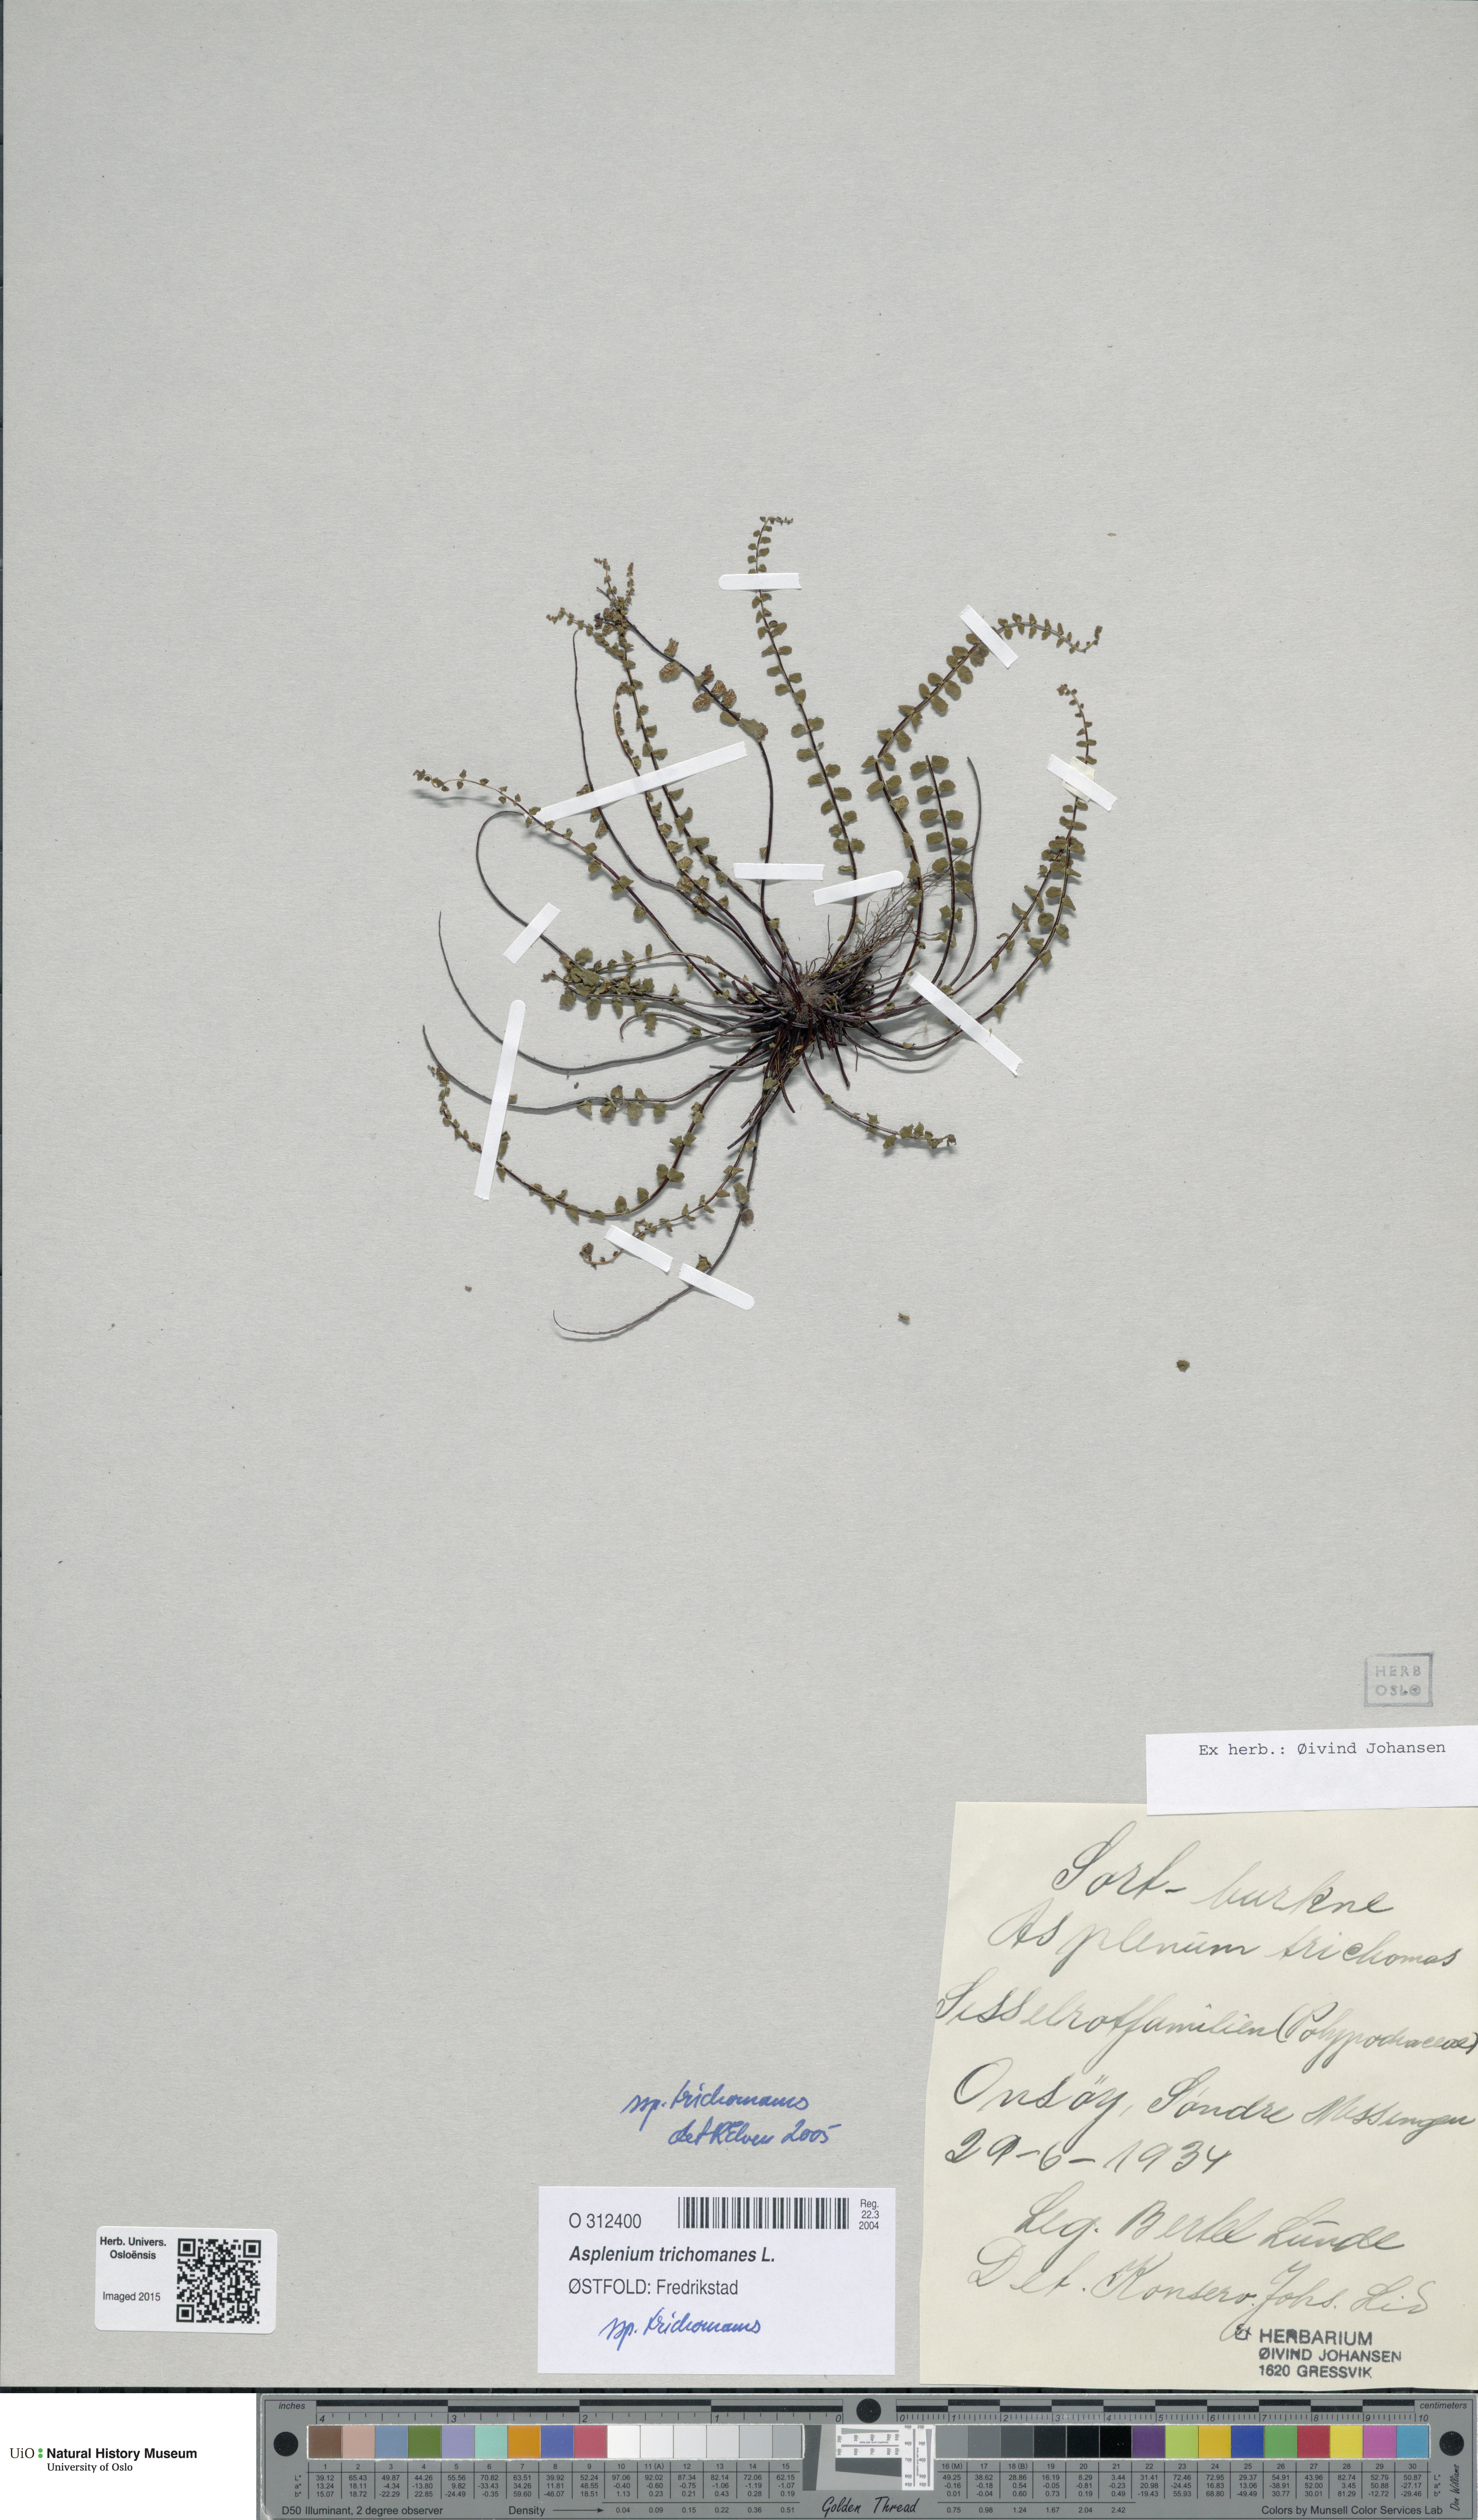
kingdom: Plantae
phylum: Tracheophyta
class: Polypodiopsida
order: Polypodiales
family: Aspleniaceae
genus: Asplenium
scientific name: Asplenium trichomanes
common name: Maidenhair spleenwort
